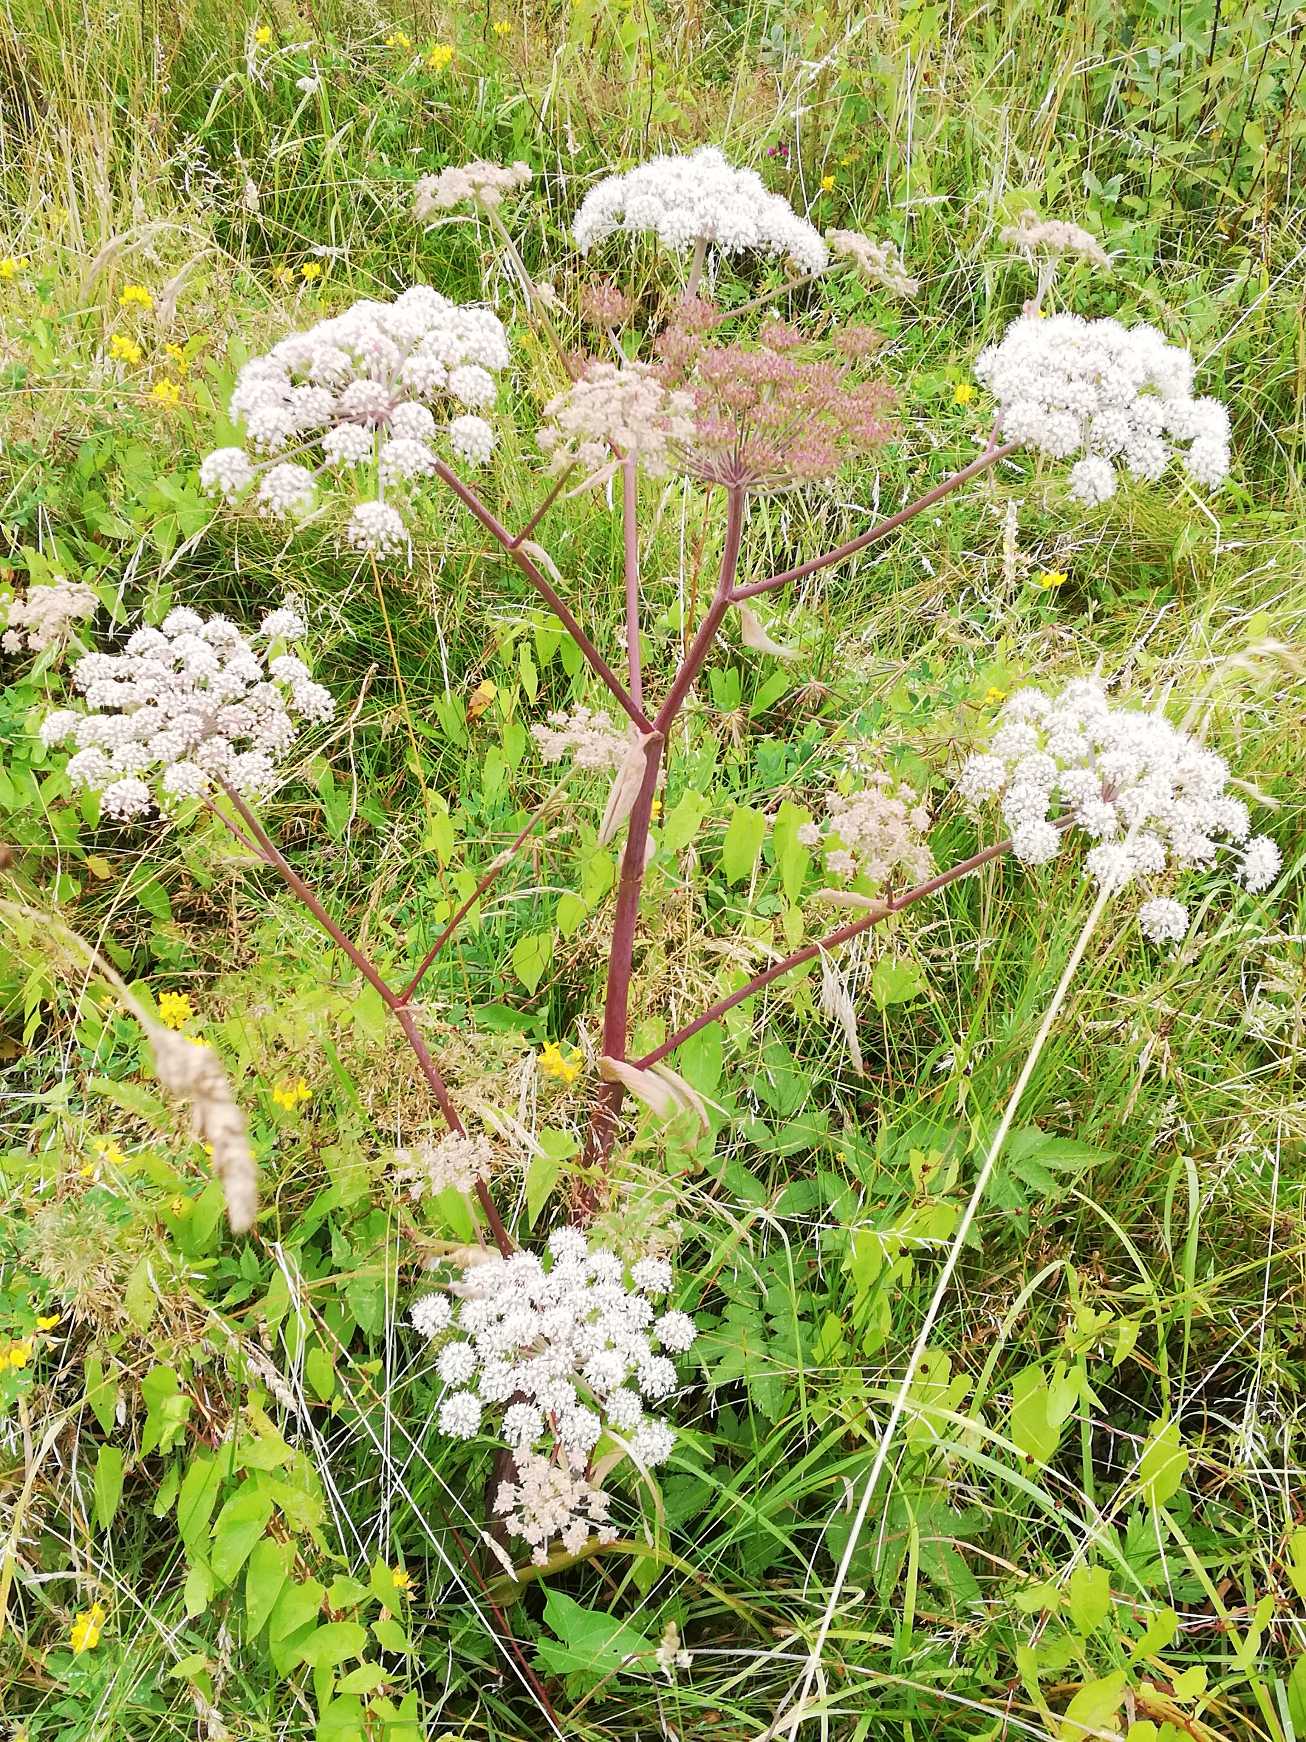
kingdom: Plantae
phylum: Tracheophyta
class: Magnoliopsida
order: Apiales
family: Apiaceae
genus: Angelica
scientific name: Angelica sylvestris
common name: Angelik
